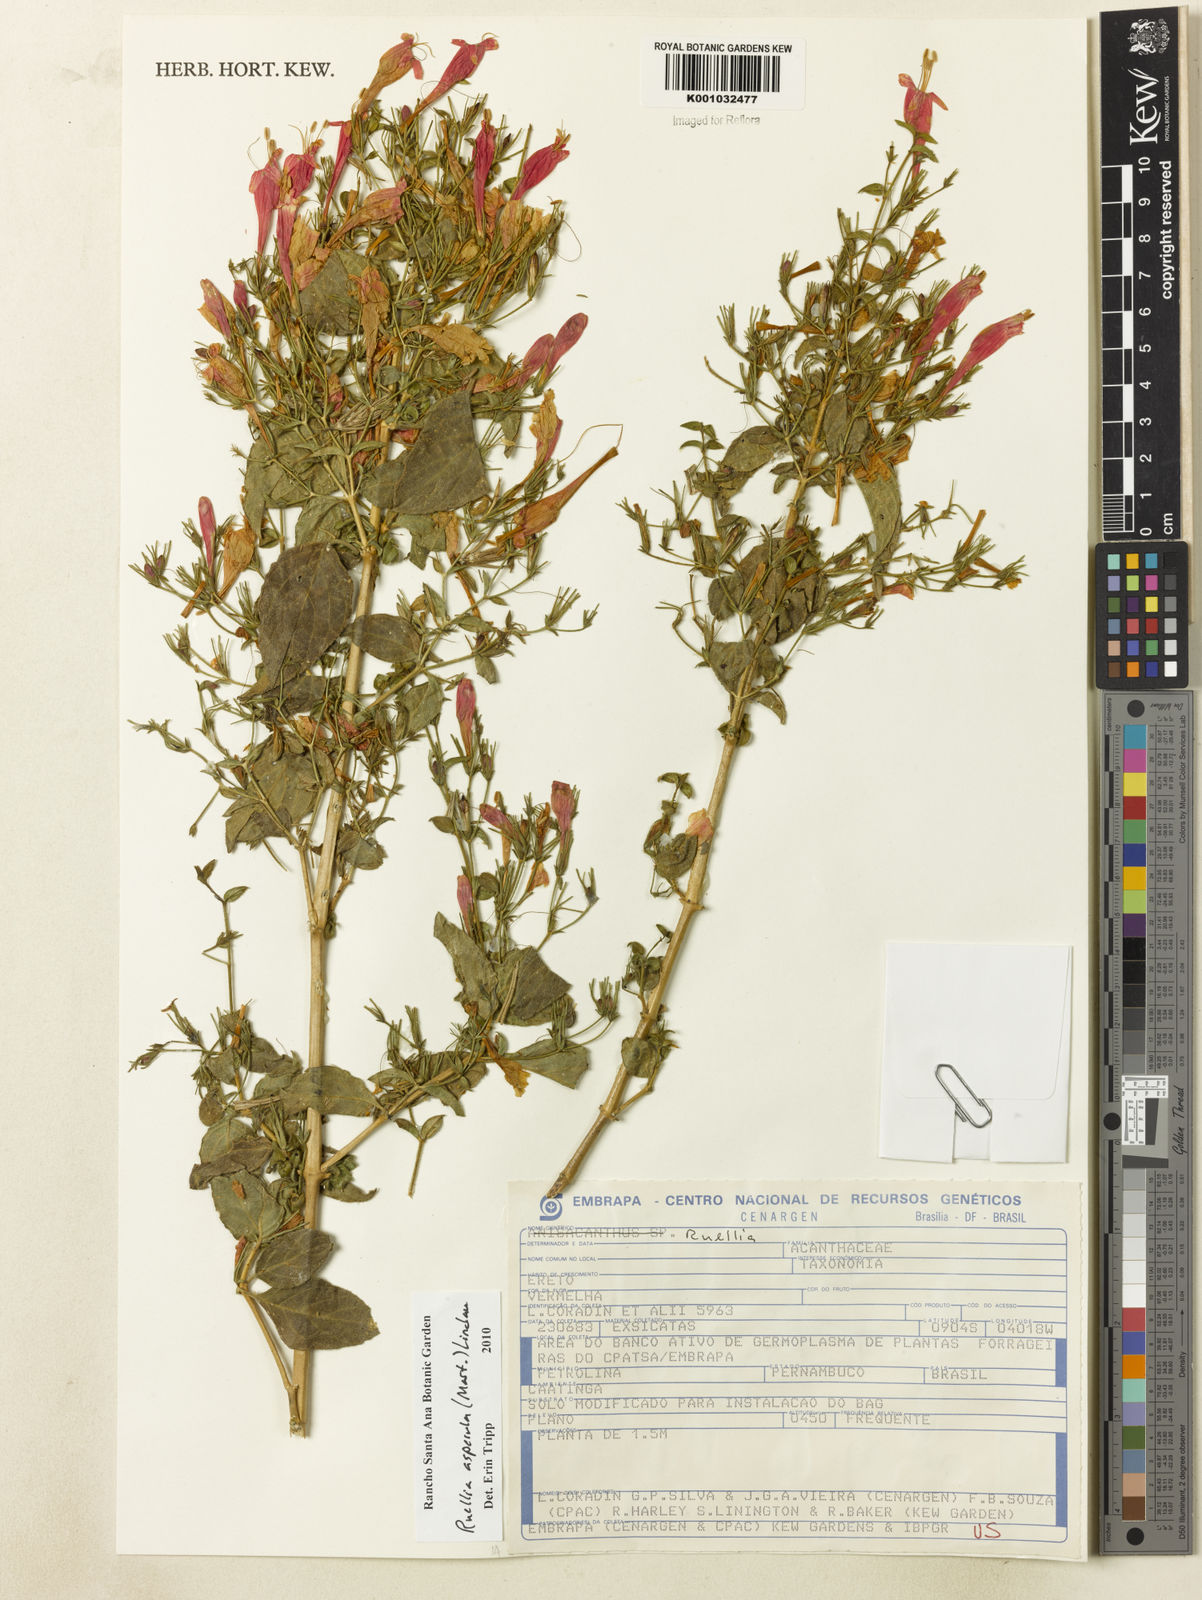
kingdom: Plantae
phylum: Tracheophyta
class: Magnoliopsida
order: Lamiales
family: Acanthaceae
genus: Ruellia
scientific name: Ruellia asperula
